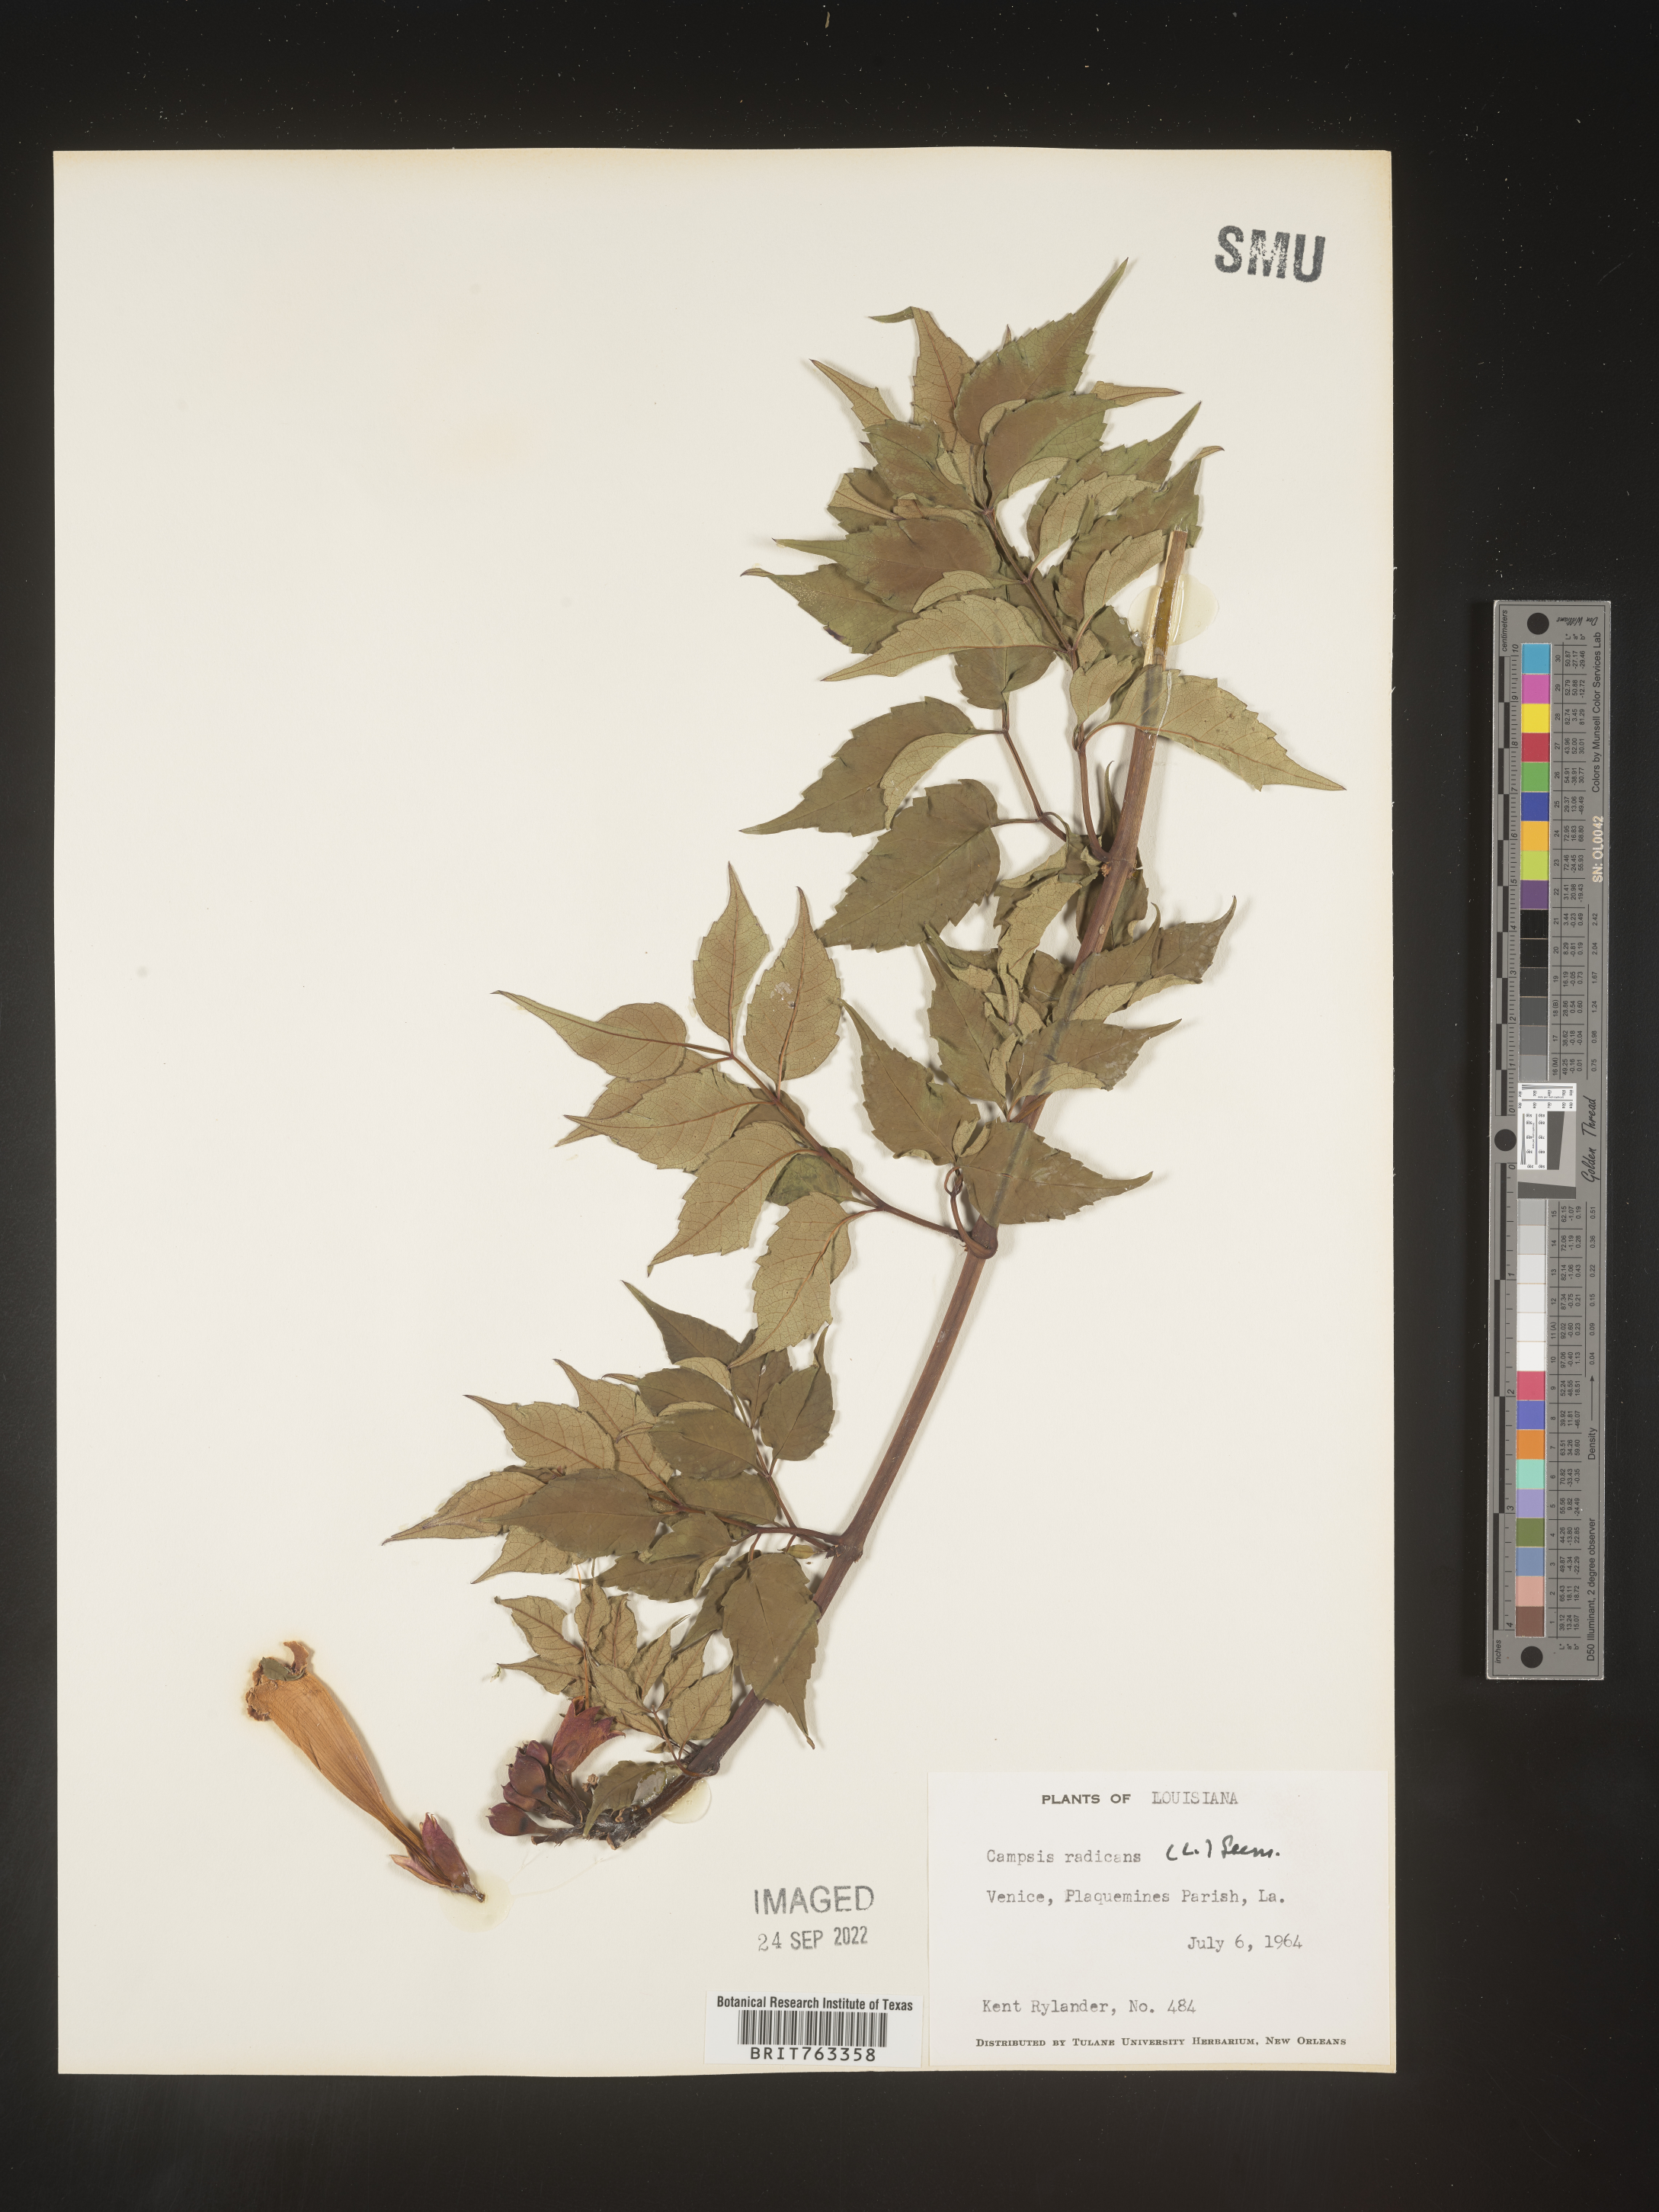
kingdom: Plantae
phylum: Tracheophyta
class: Magnoliopsida
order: Lamiales
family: Bignoniaceae
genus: Campsis
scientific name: Campsis radicans
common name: Trumpet-creeper
